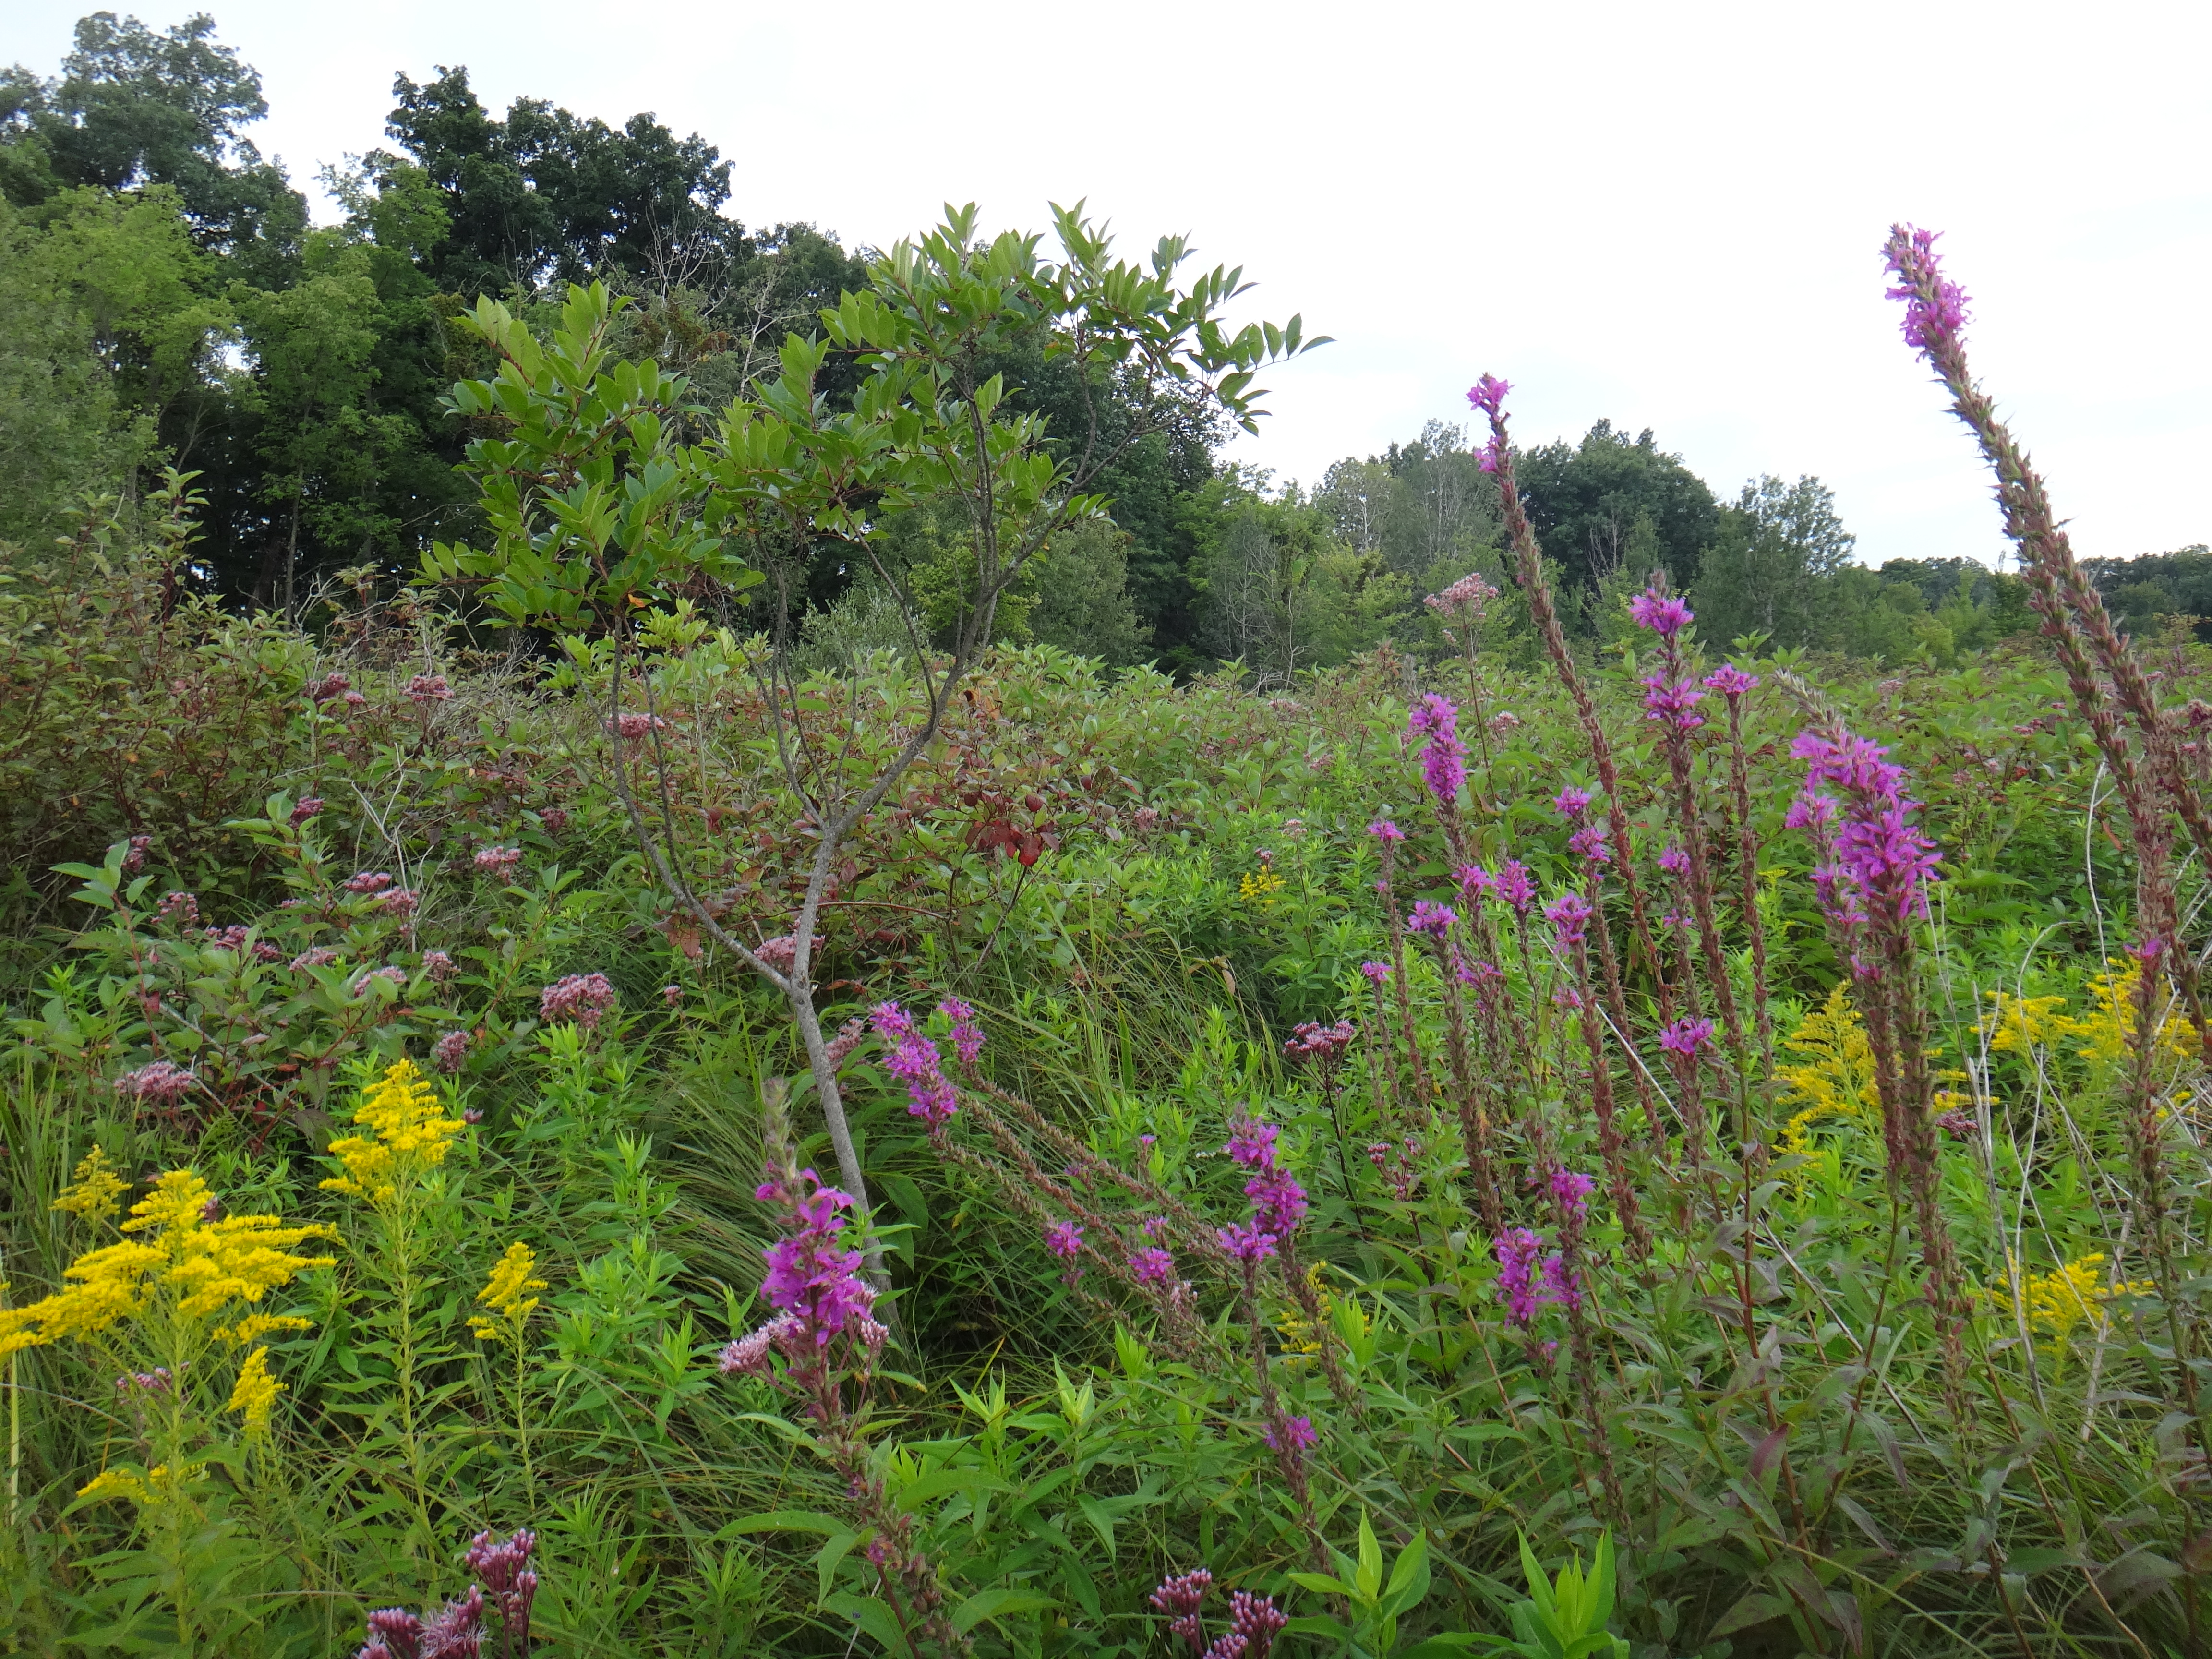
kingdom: Plantae
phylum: Tracheophyta
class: Magnoliopsida
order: Asterales
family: Asteraceae
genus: Symphyotrichum
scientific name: Symphyotrichum firmum
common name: Shining aster
